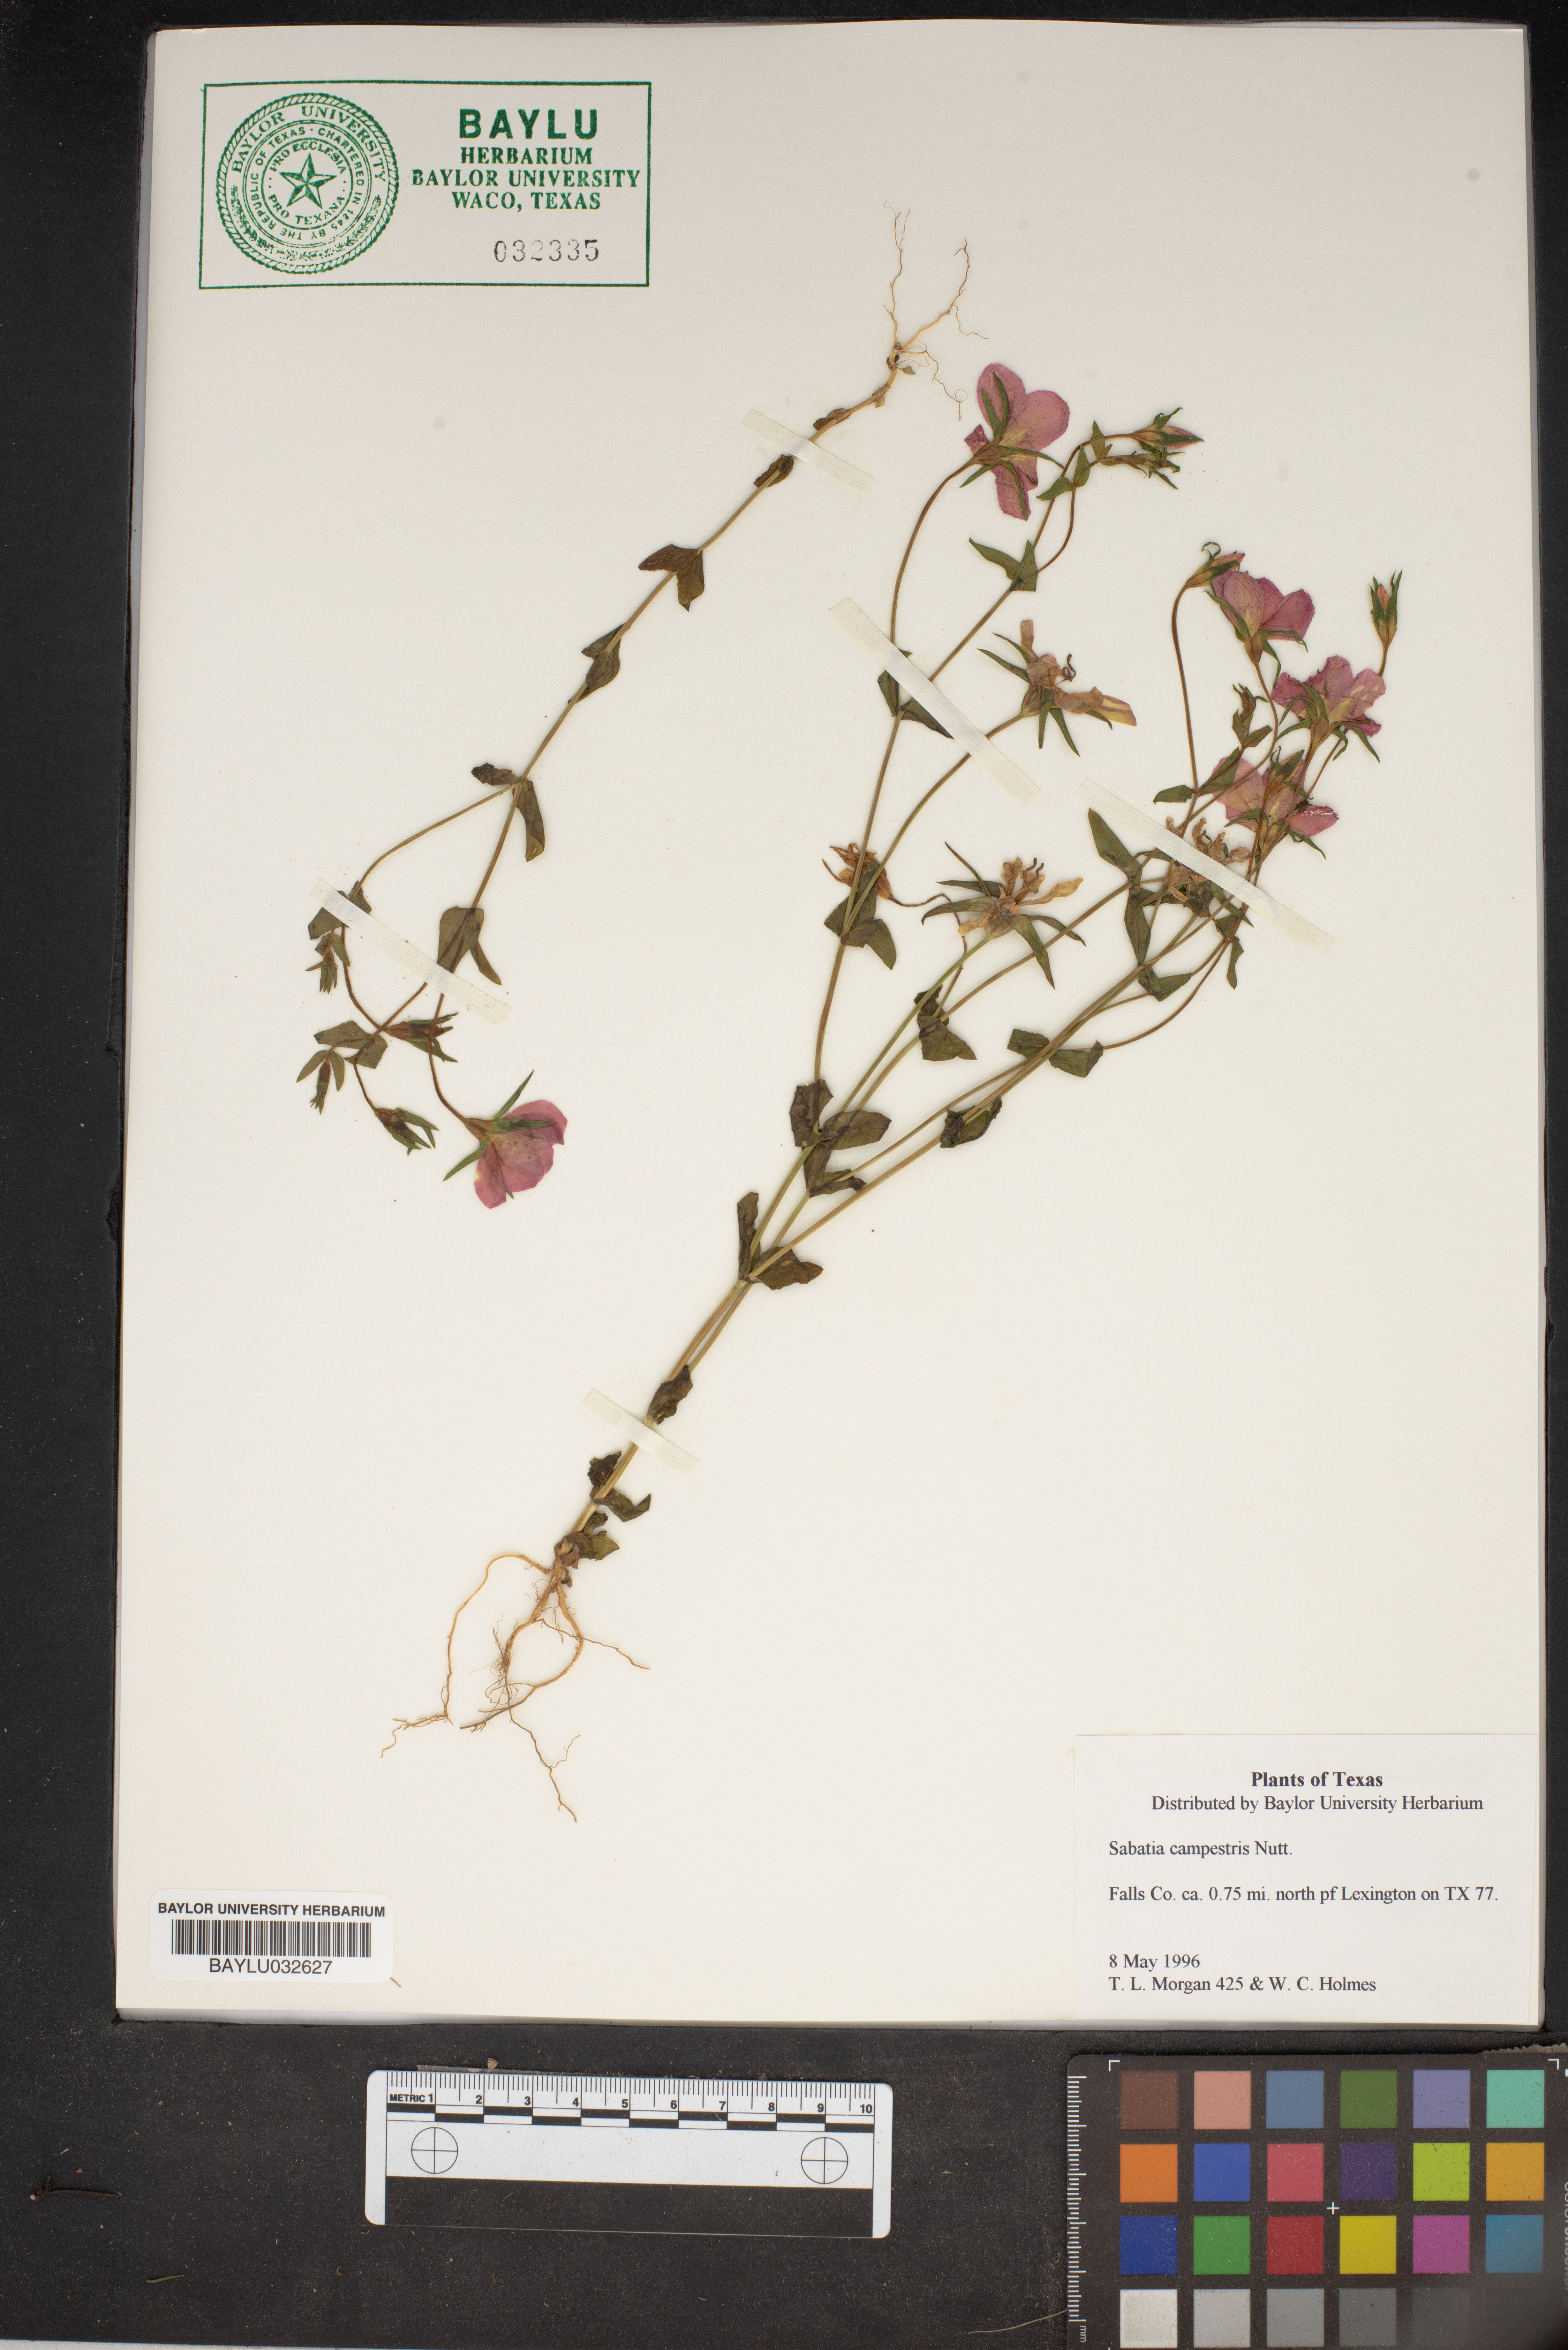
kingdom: Plantae
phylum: Tracheophyta
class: Magnoliopsida
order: Gentianales
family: Gentianaceae
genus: Sabatia
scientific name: Sabatia campestris
